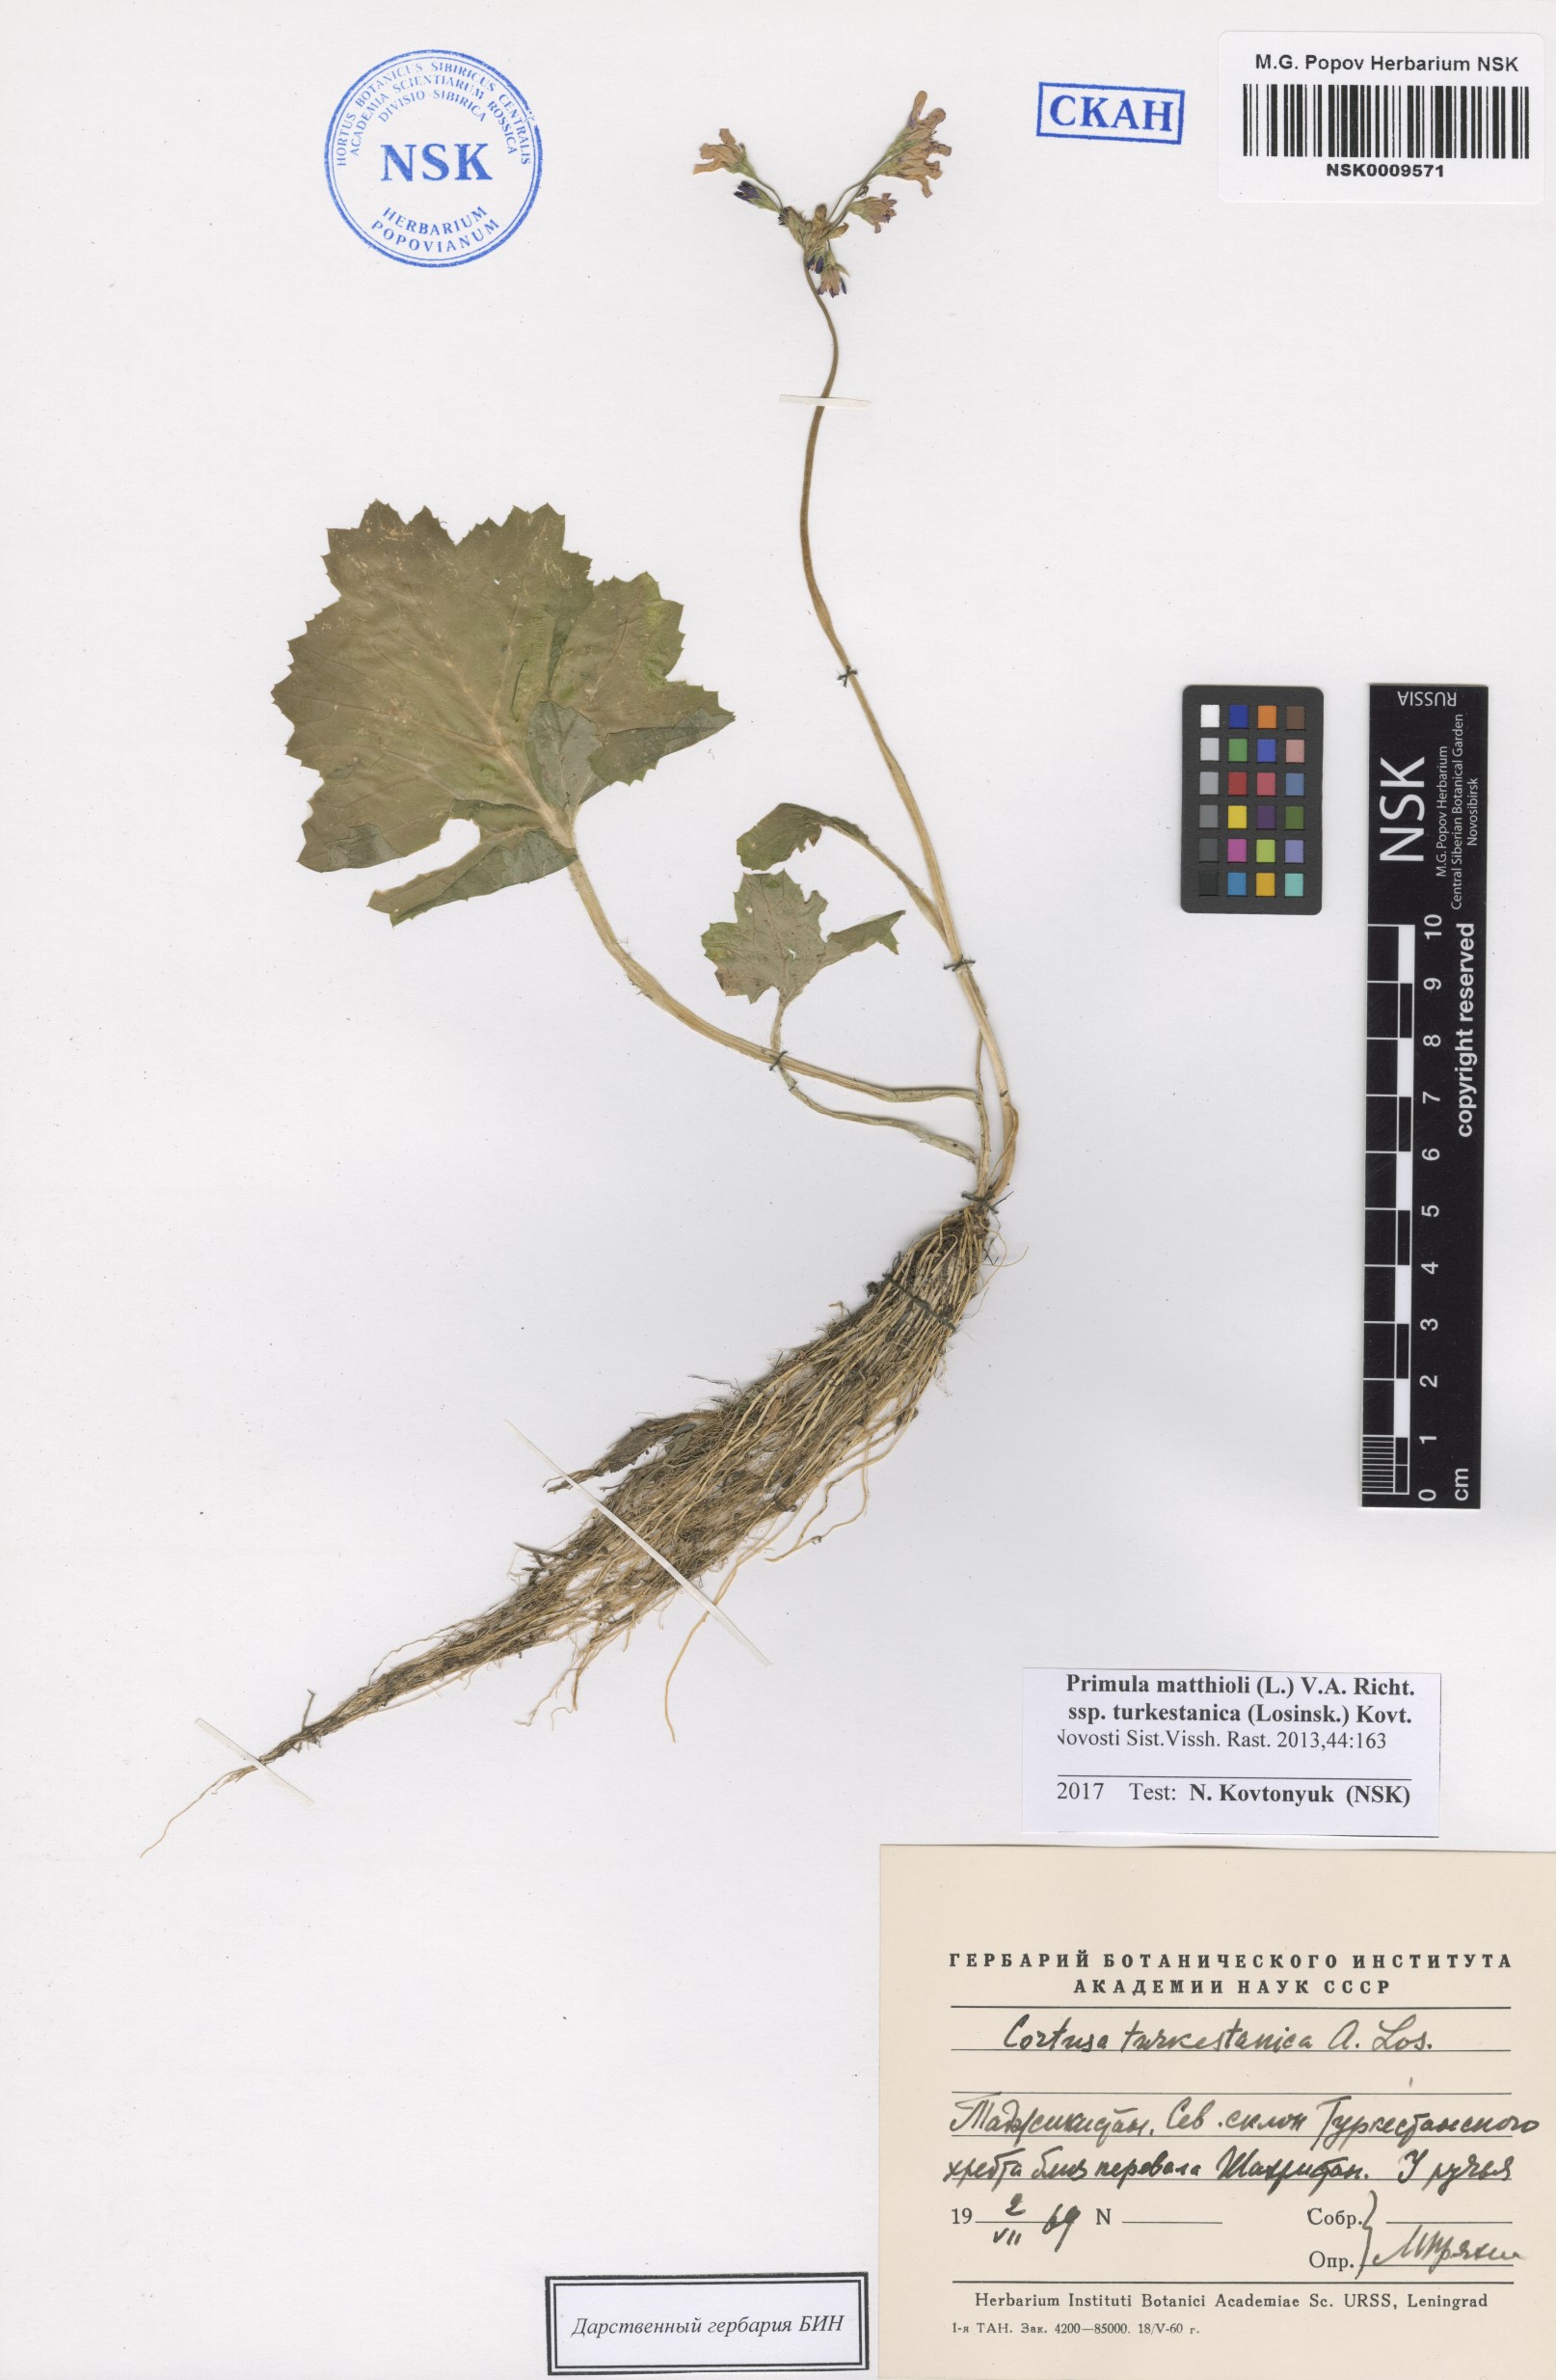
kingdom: Plantae
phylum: Tracheophyta
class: Magnoliopsida
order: Ericales
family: Primulaceae
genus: Primula
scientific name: Primula matthioli
